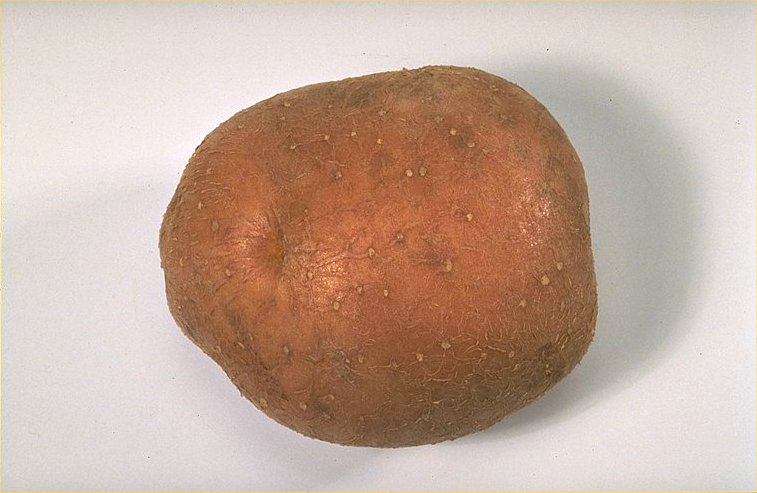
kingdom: Plantae
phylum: Tracheophyta
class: Magnoliopsida
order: Solanales
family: Solanaceae
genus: Solanum
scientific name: Solanum tuberosum
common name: Potato
